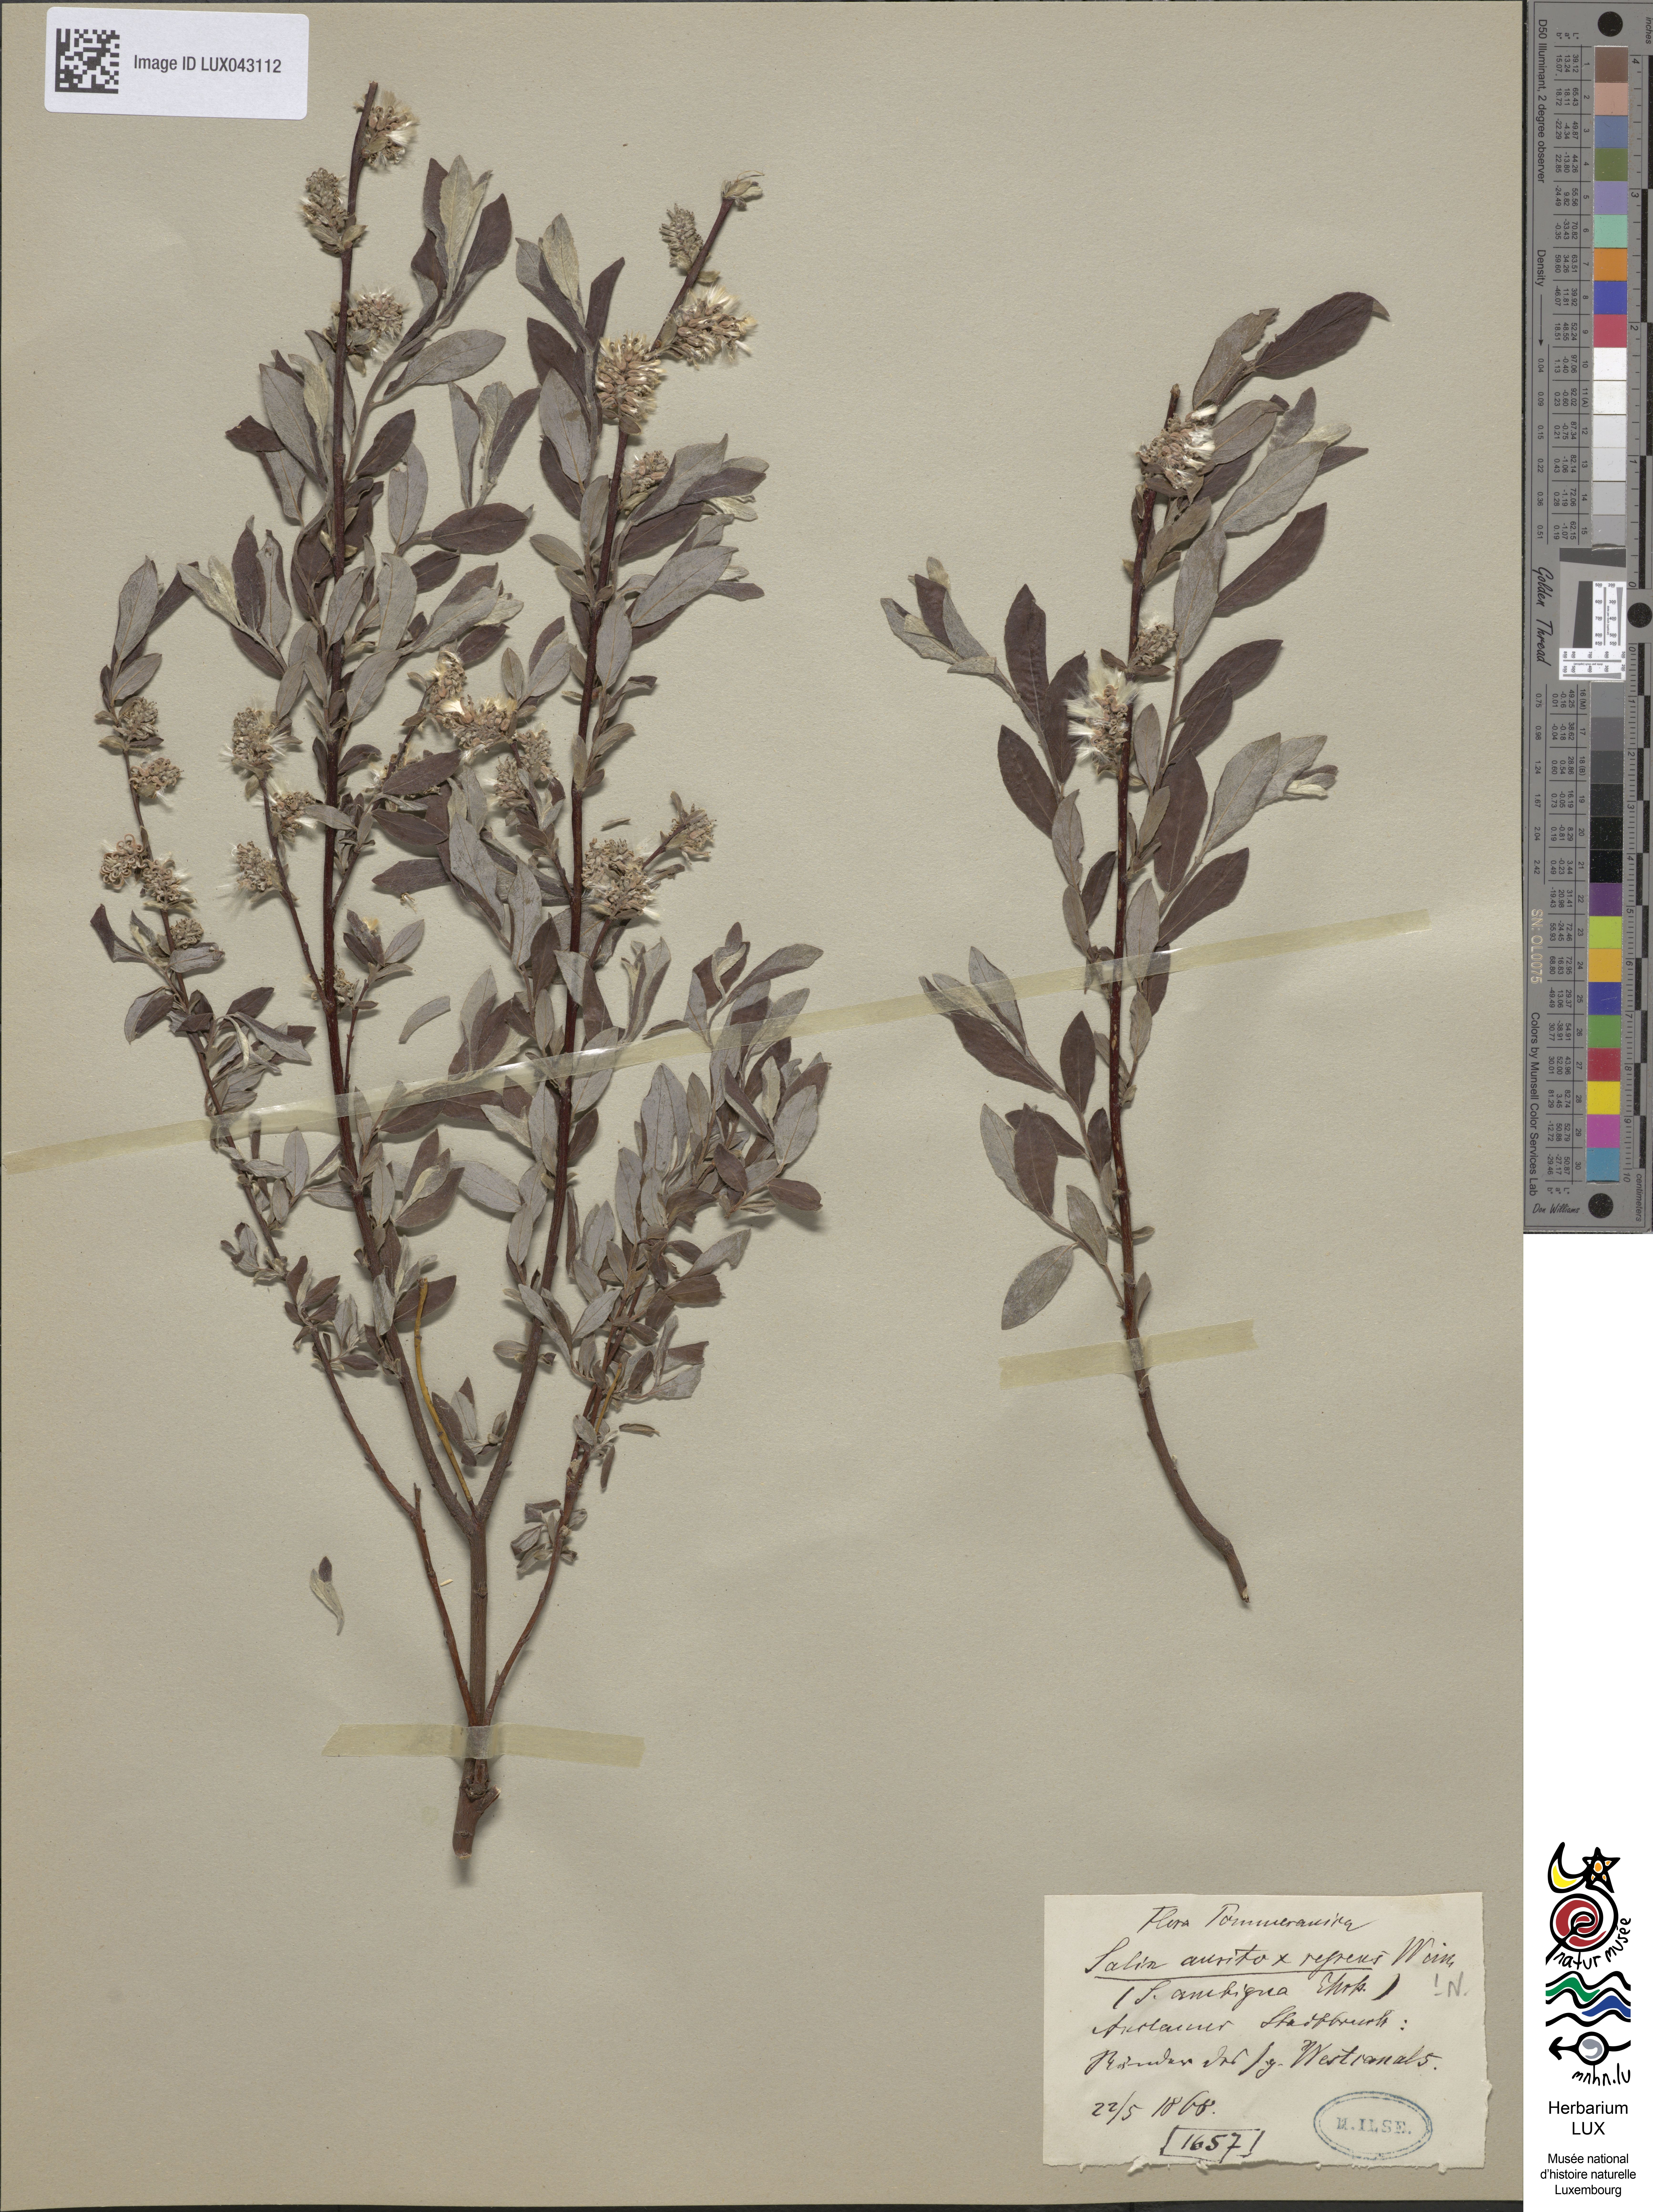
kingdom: Plantae
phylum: Tracheophyta
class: Magnoliopsida
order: Malpighiales
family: Salicaceae
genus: Salix
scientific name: Salix
